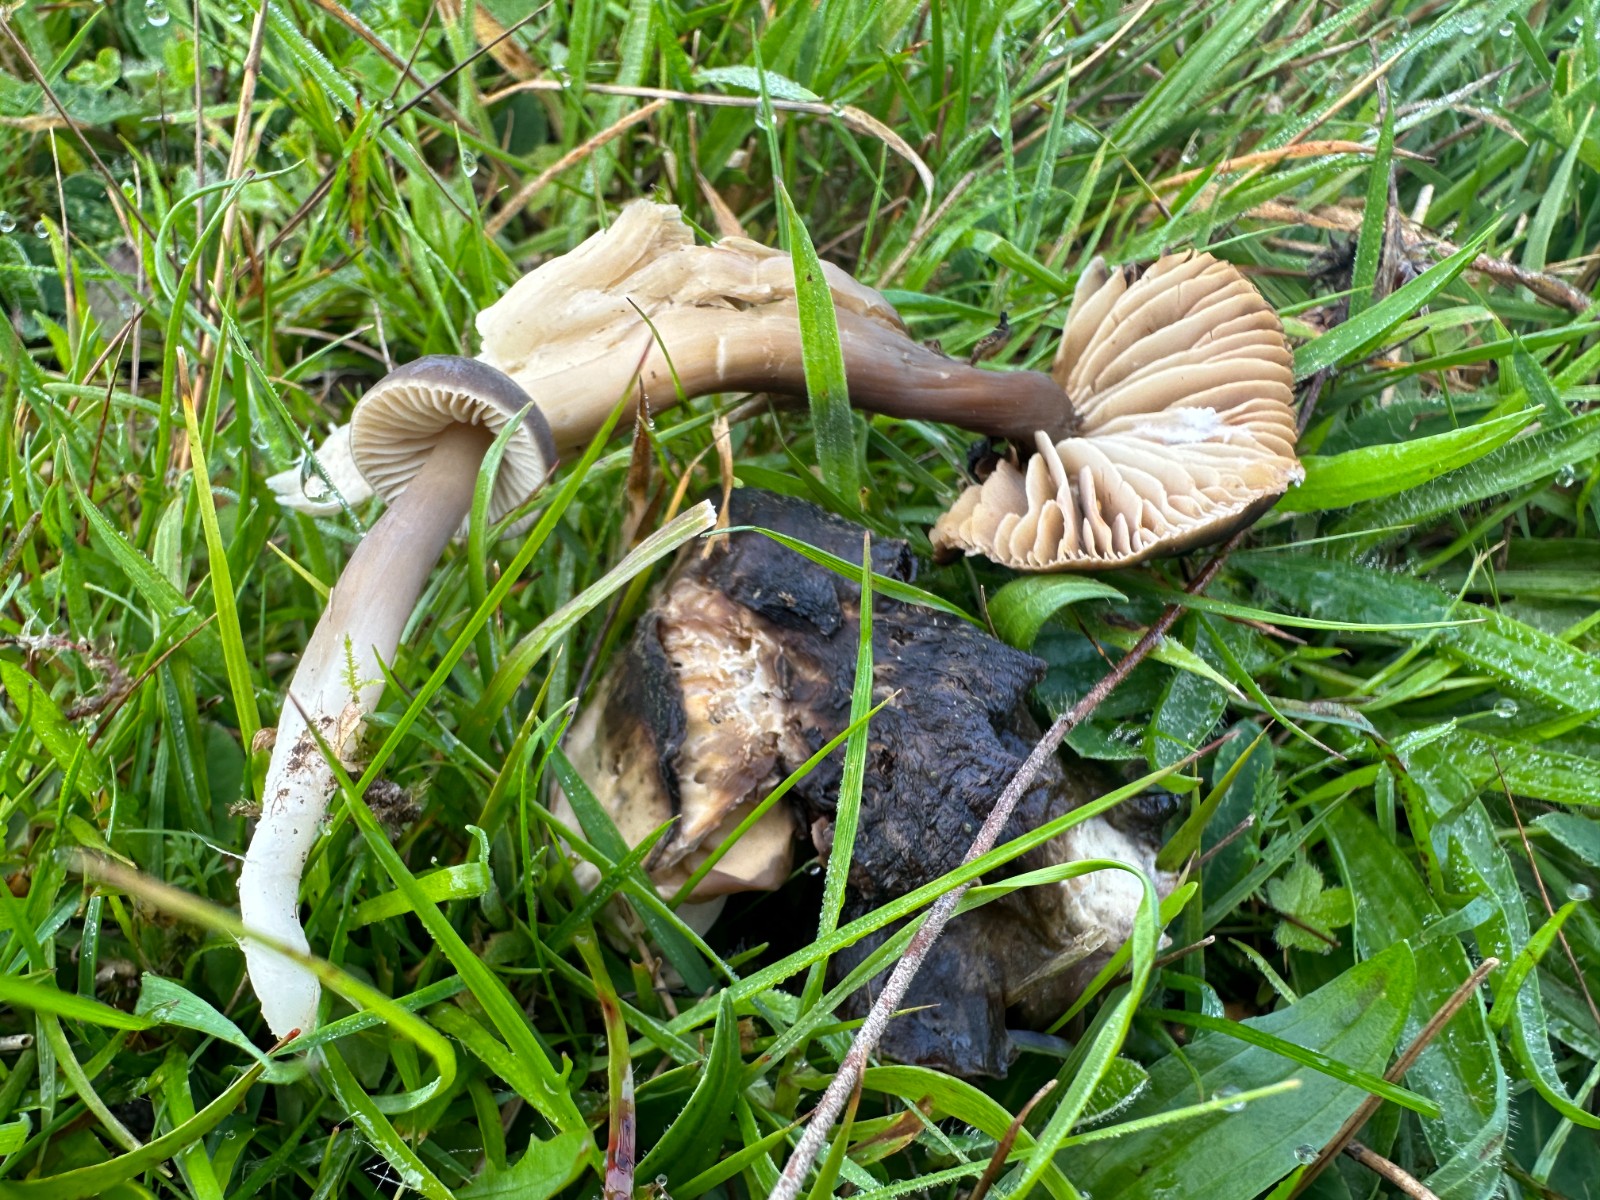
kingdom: Fungi
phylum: Basidiomycota
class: Agaricomycetes
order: Agaricales
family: Hygrophoraceae
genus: Neohygrocybe
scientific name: Neohygrocybe nitrata
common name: stinkende vokshat
